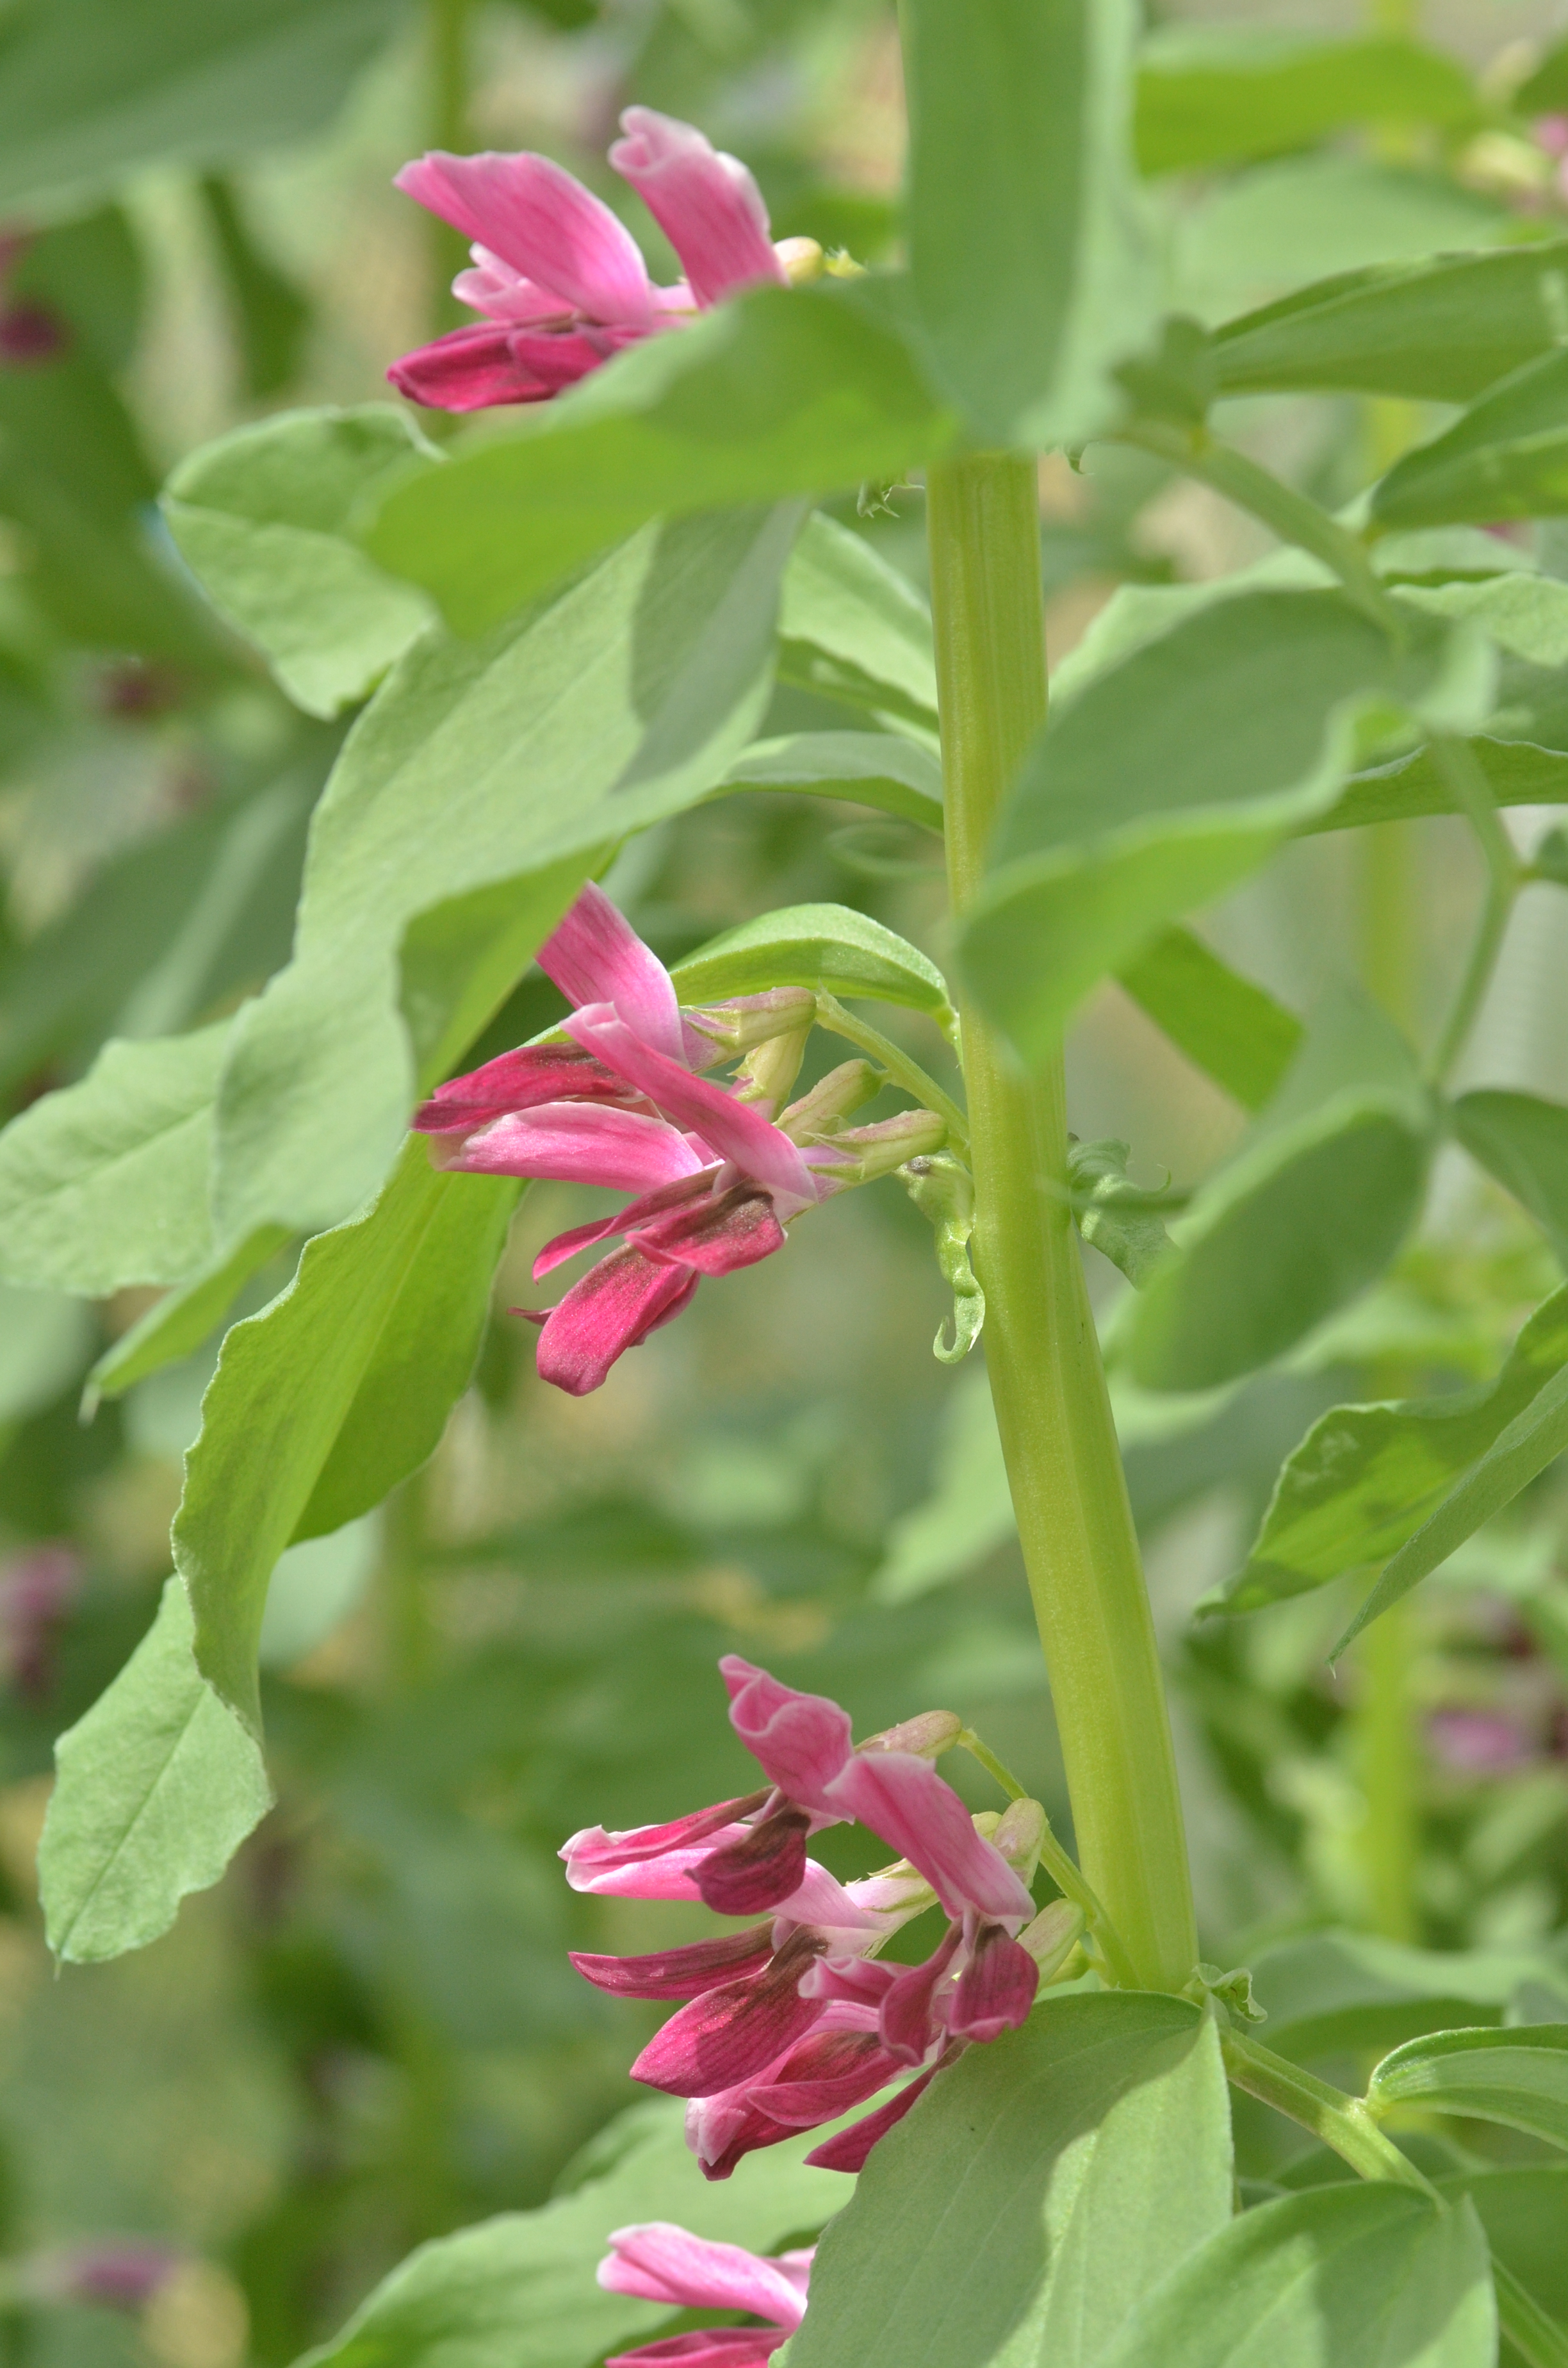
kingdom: Plantae
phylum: Tracheophyta
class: Magnoliopsida
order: Fabales
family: Fabaceae
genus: Vicia
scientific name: Vicia faba
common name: Broad bean
